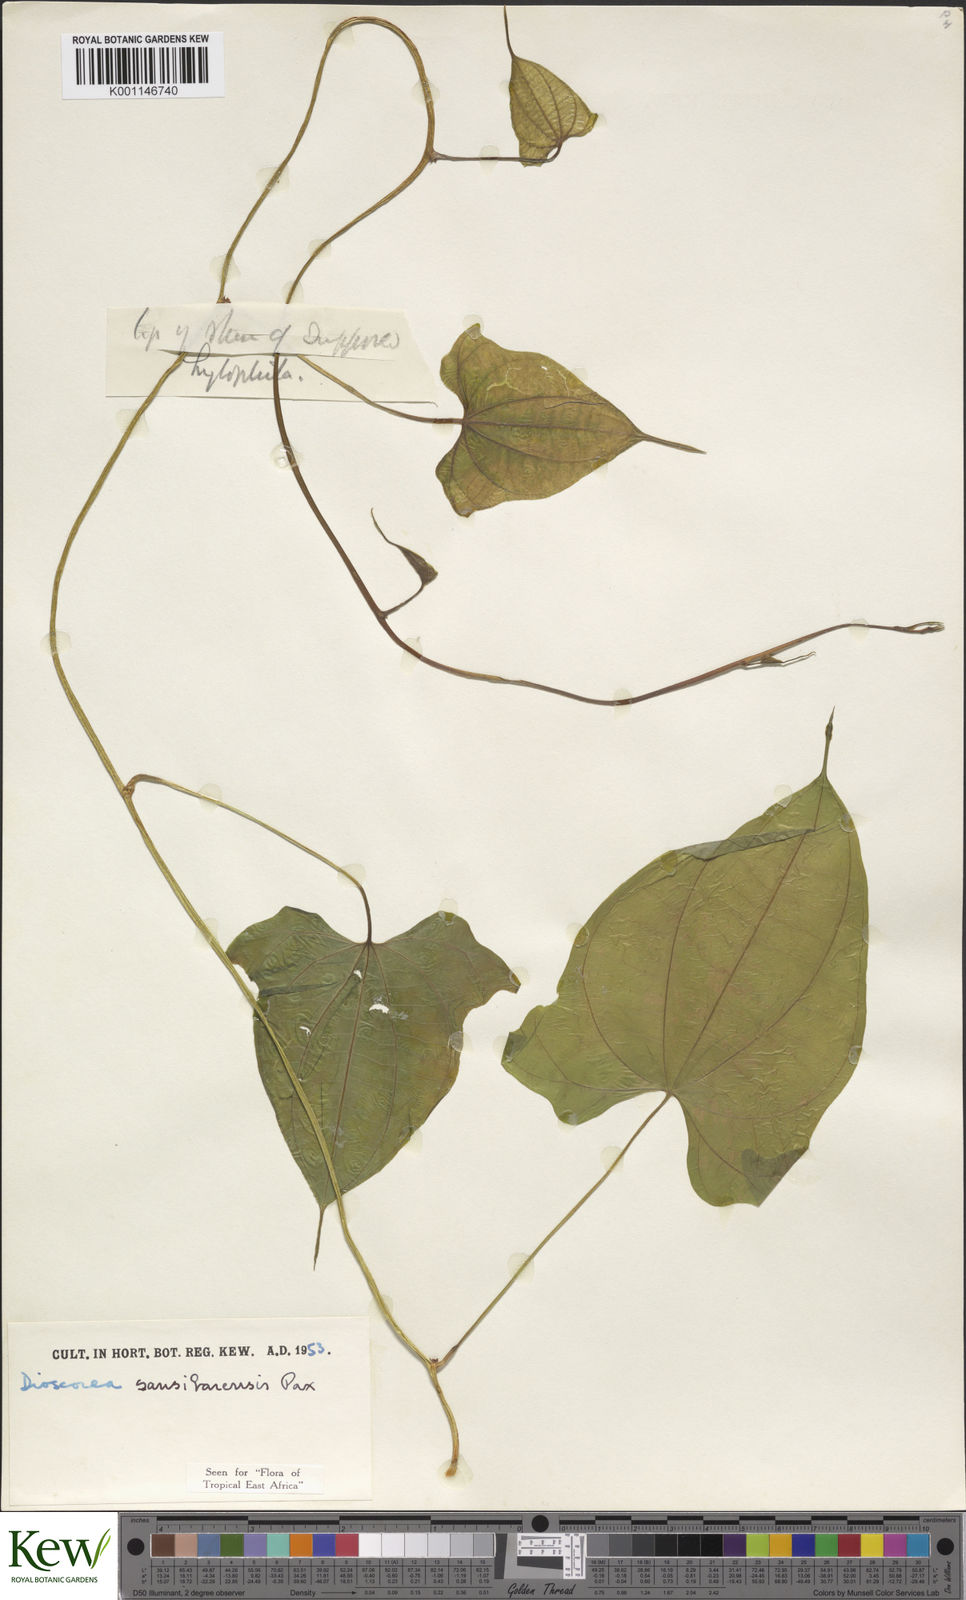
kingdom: Plantae
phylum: Tracheophyta
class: Liliopsida
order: Dioscoreales
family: Dioscoreaceae
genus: Dioscorea
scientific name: Dioscorea sansibarensis
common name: Zanzibar yam
